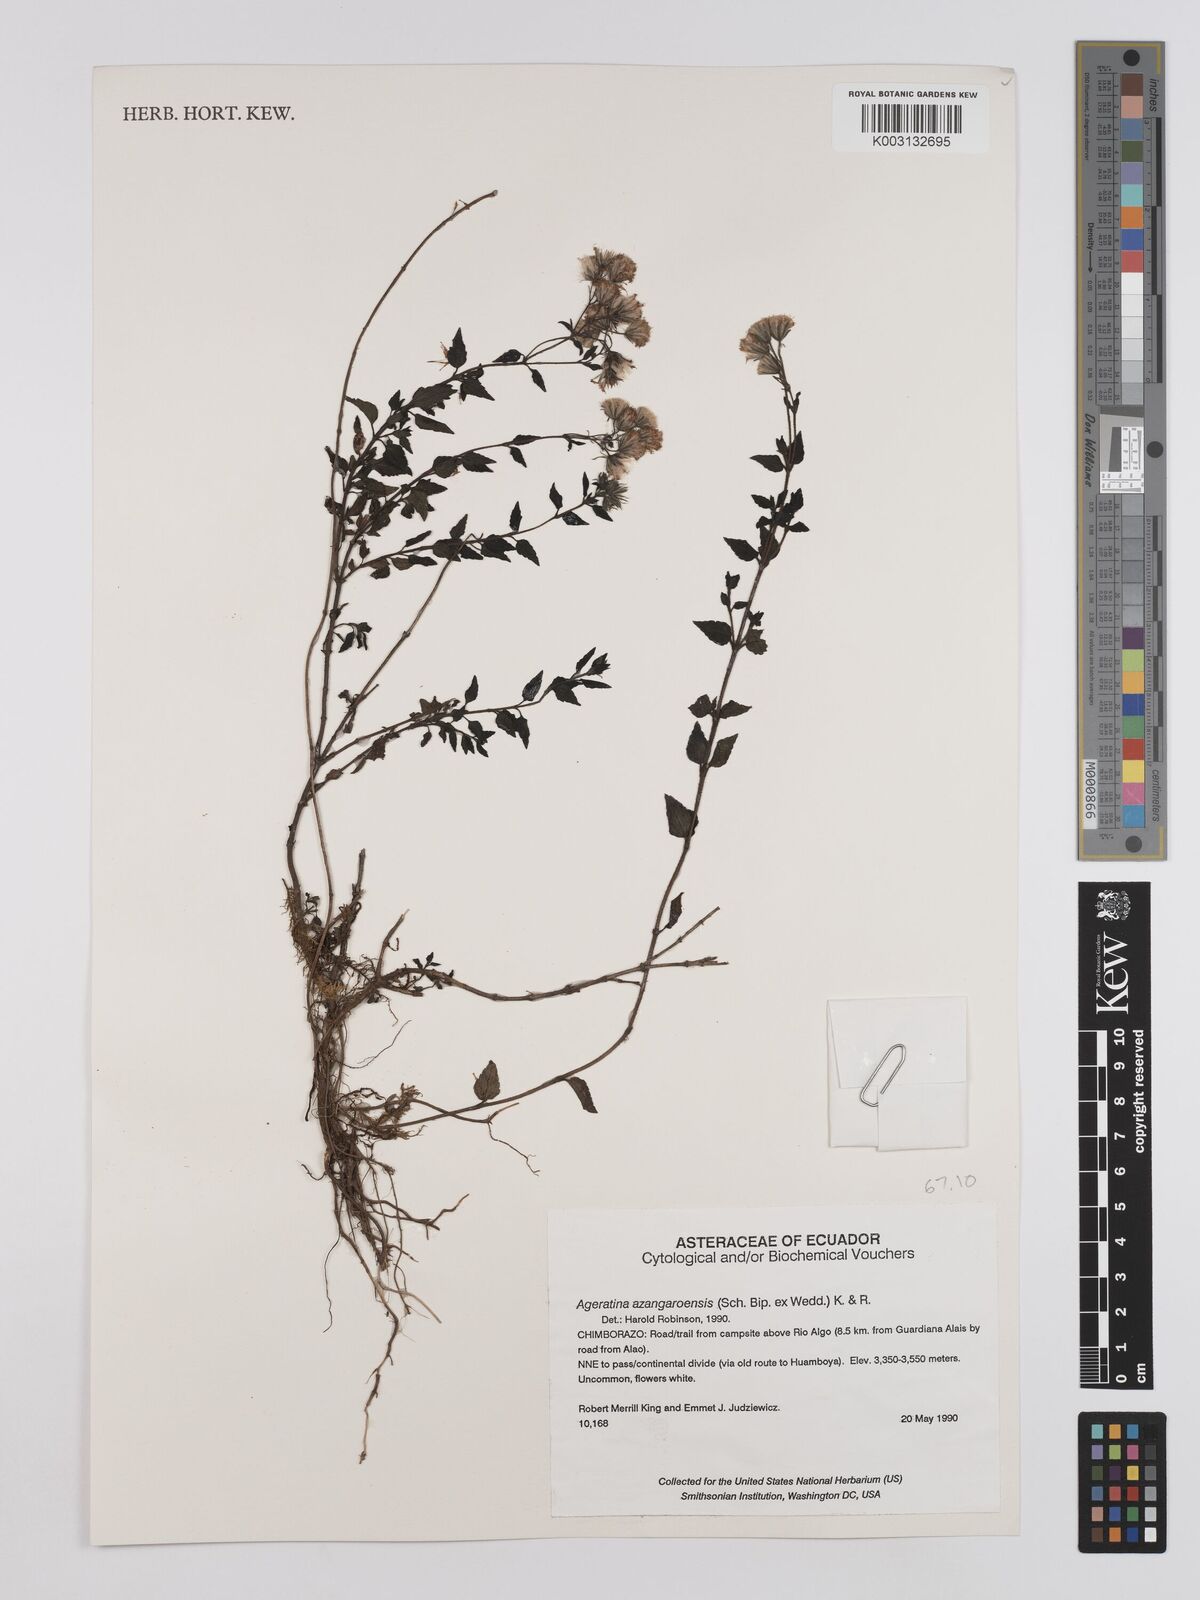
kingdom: Plantae
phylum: Tracheophyta
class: Magnoliopsida
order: Asterales
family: Asteraceae
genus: Ageratina
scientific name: Ageratina glechonophylla
